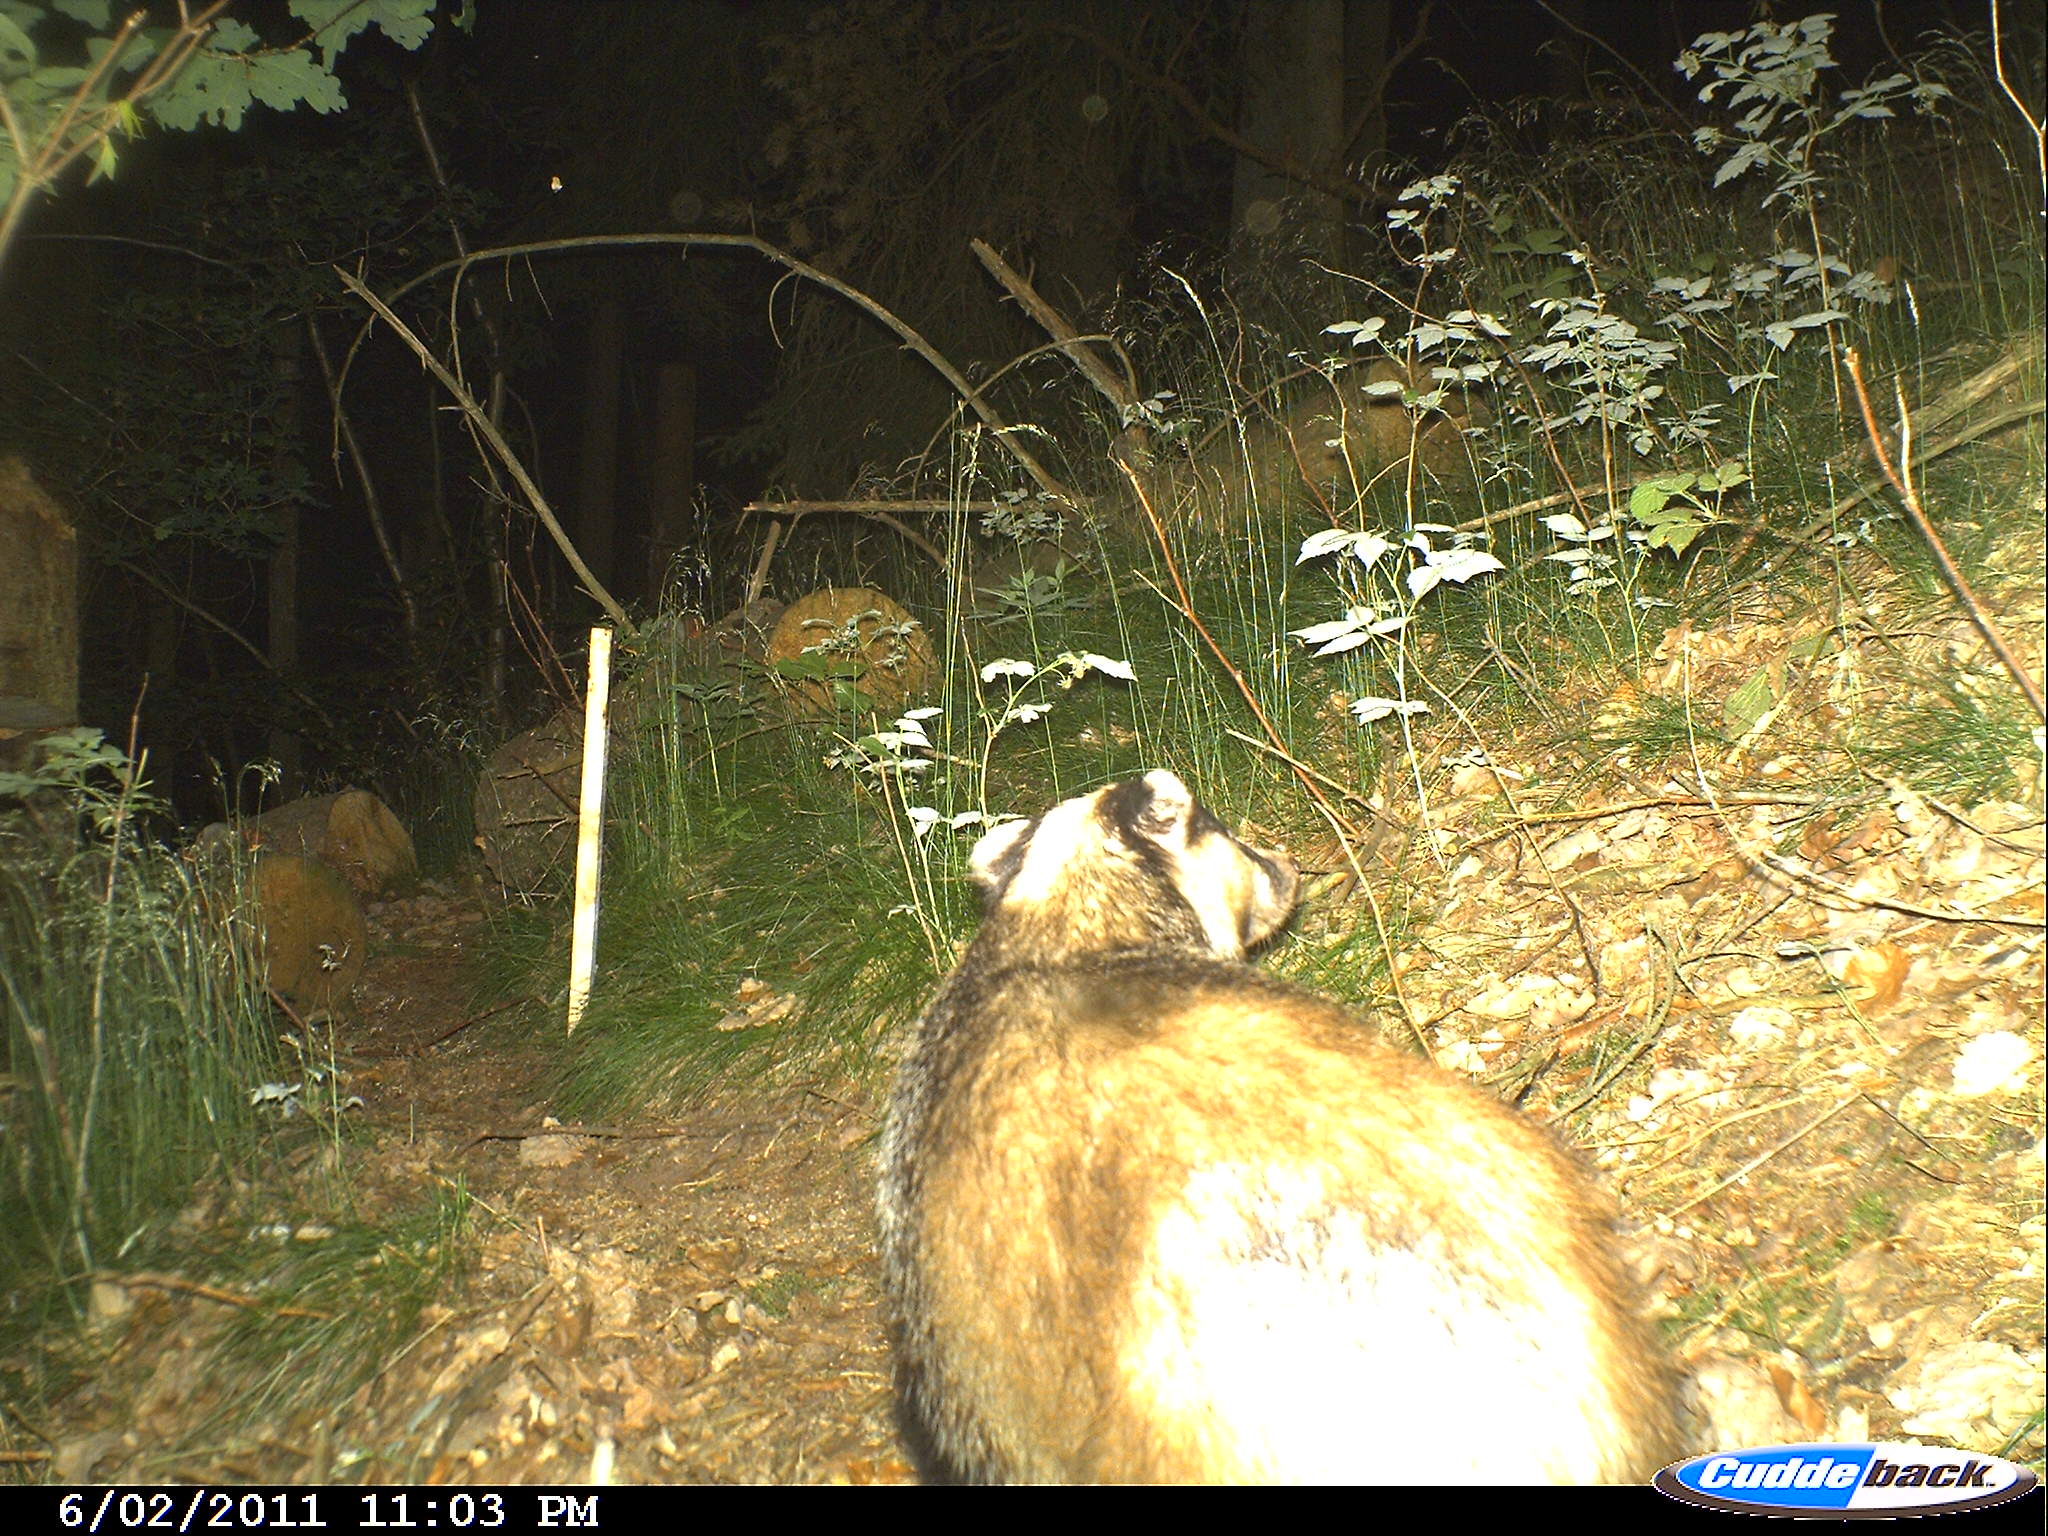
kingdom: Animalia
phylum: Chordata
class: Mammalia
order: Carnivora
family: Mustelidae
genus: Meles
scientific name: Meles meles
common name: Eurasian badger
